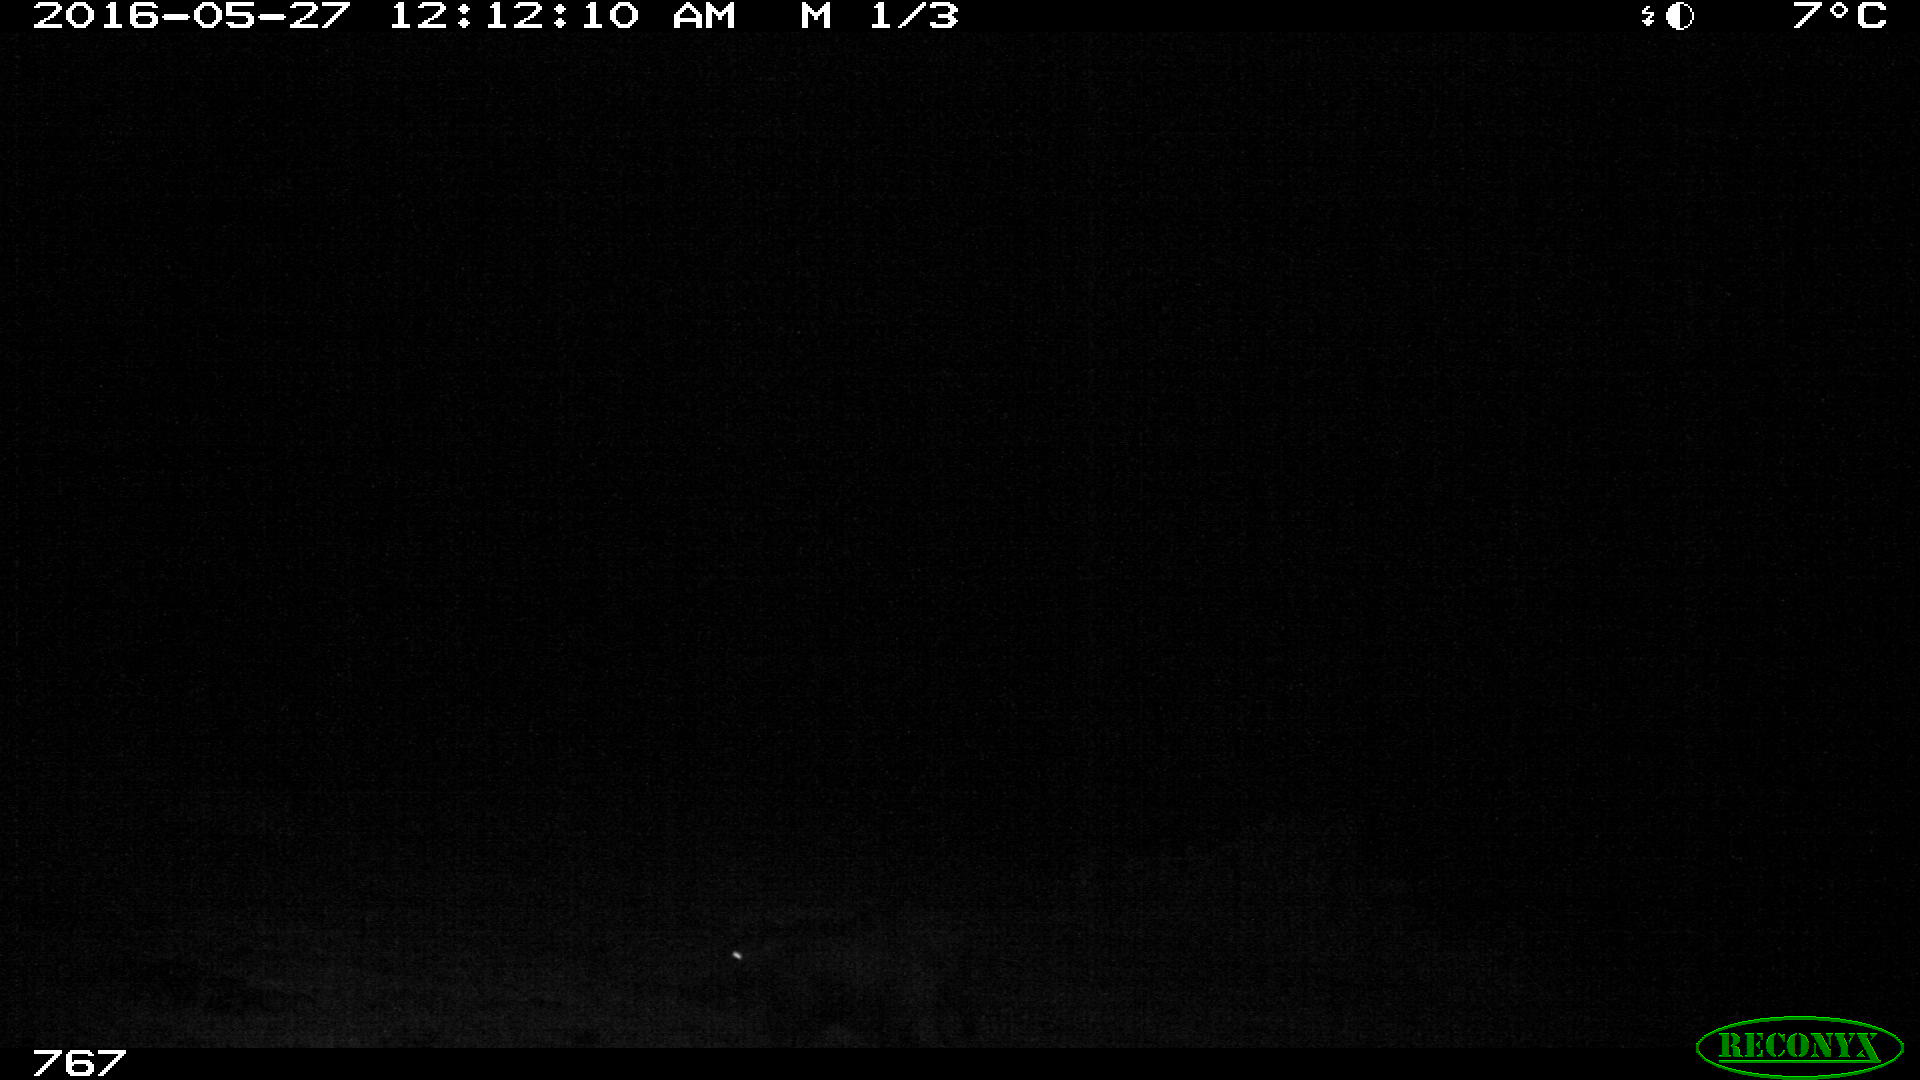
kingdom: Animalia
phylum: Chordata
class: Mammalia
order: Artiodactyla
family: Suidae
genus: Sus
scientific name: Sus scrofa
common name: Wild boar
